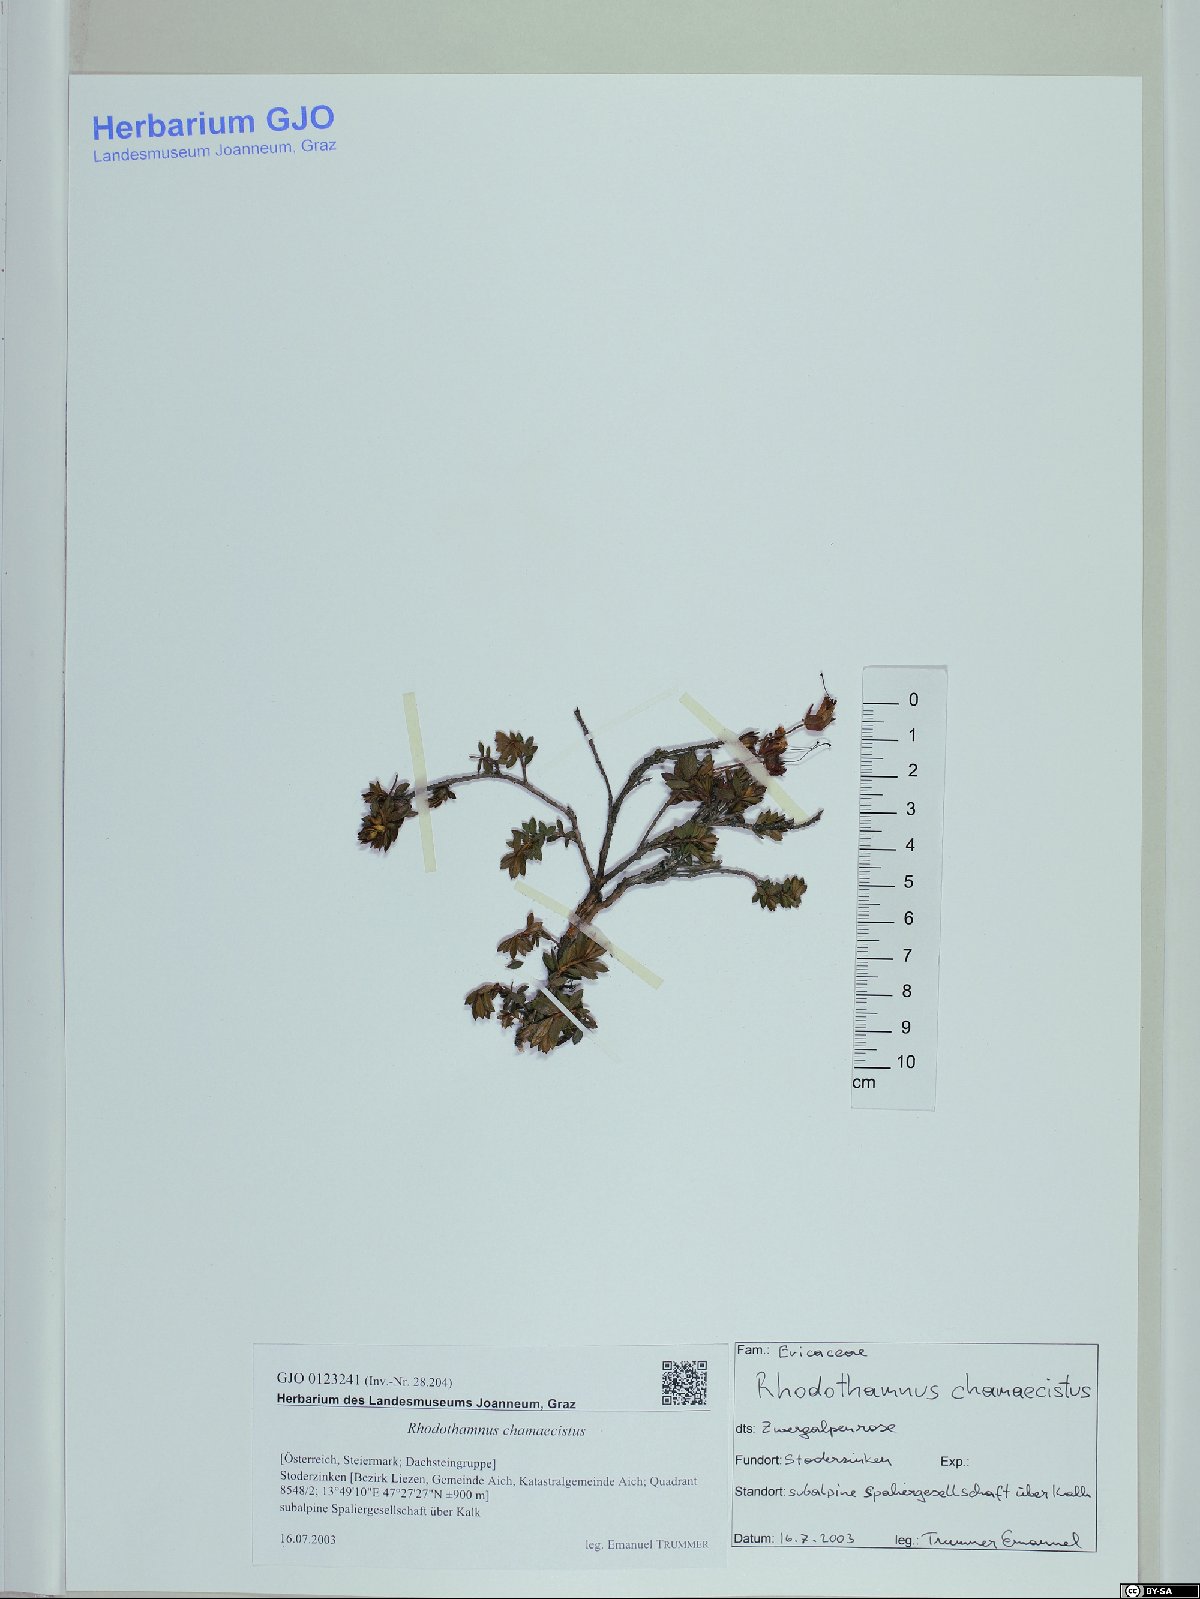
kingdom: Plantae
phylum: Tracheophyta
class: Magnoliopsida
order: Ericales
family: Ericaceae
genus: Rhodothamnus
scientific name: Rhodothamnus chamaecistus
